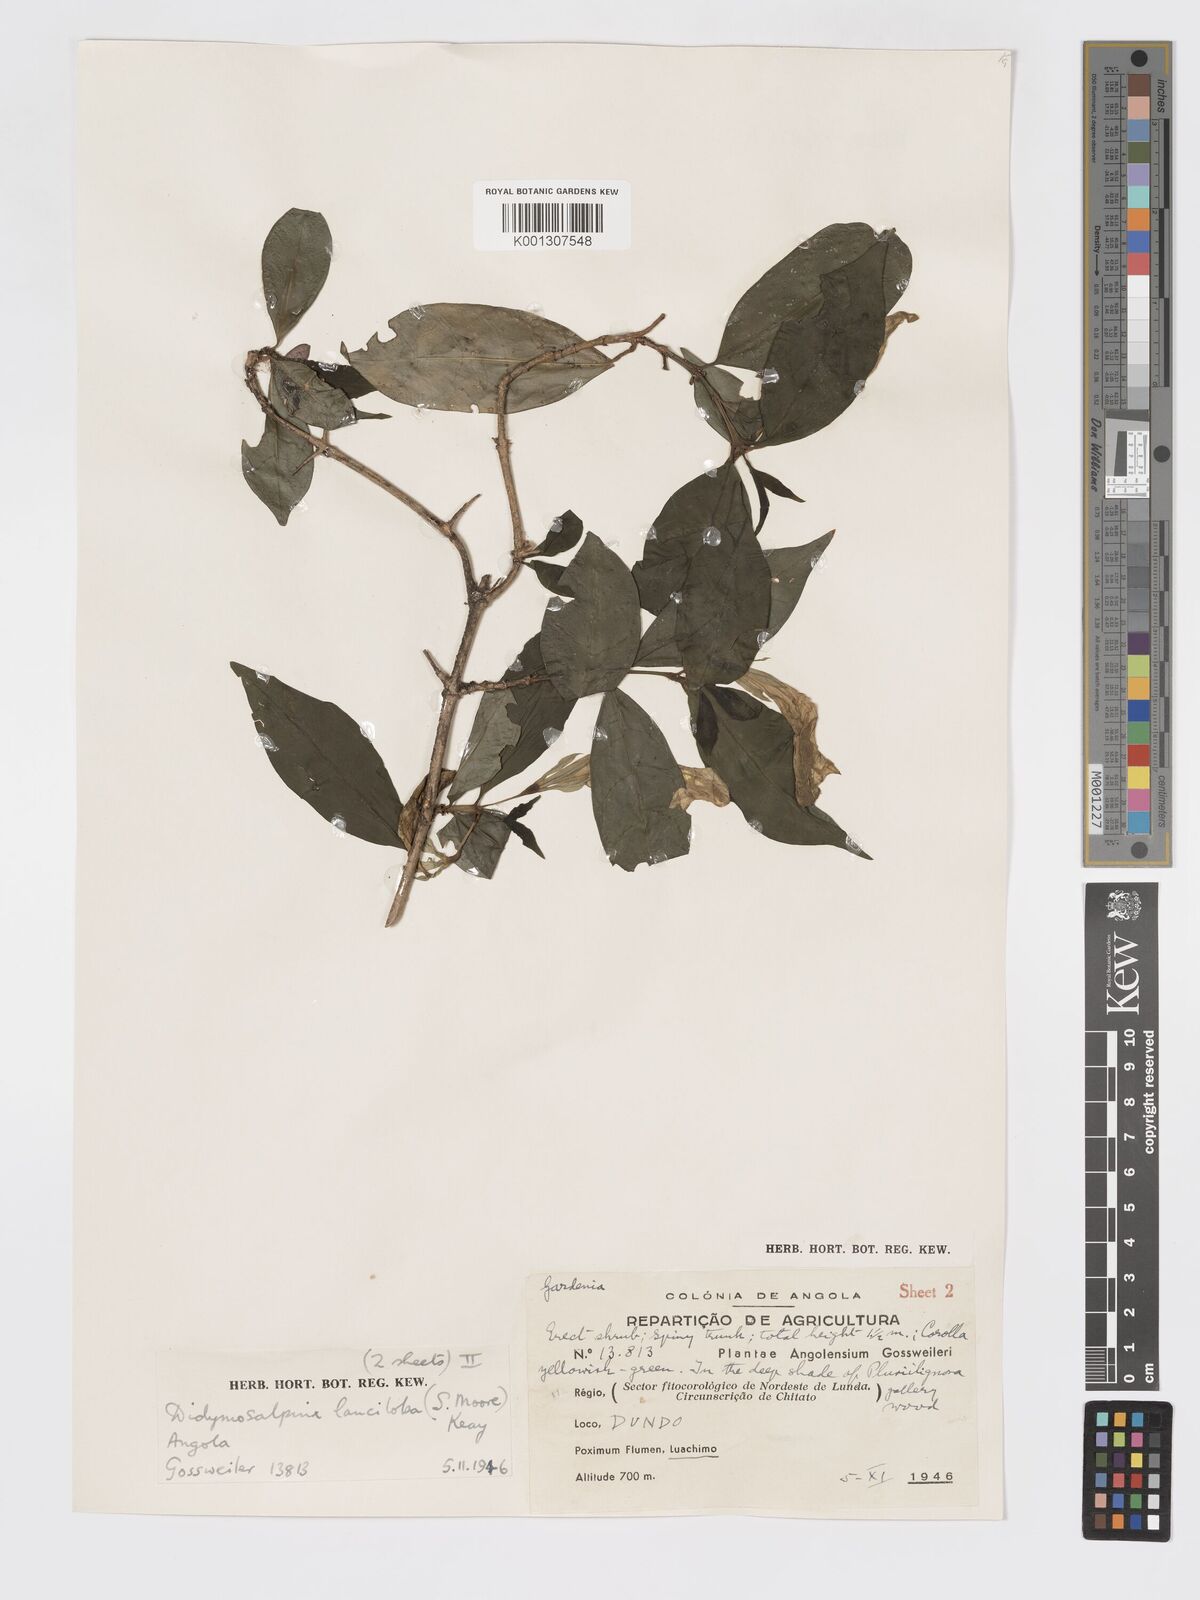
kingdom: Plantae
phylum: Tracheophyta
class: Magnoliopsida
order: Gentianales
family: Rubiaceae
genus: Didymosalpinx
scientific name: Didymosalpinx lanciloba
